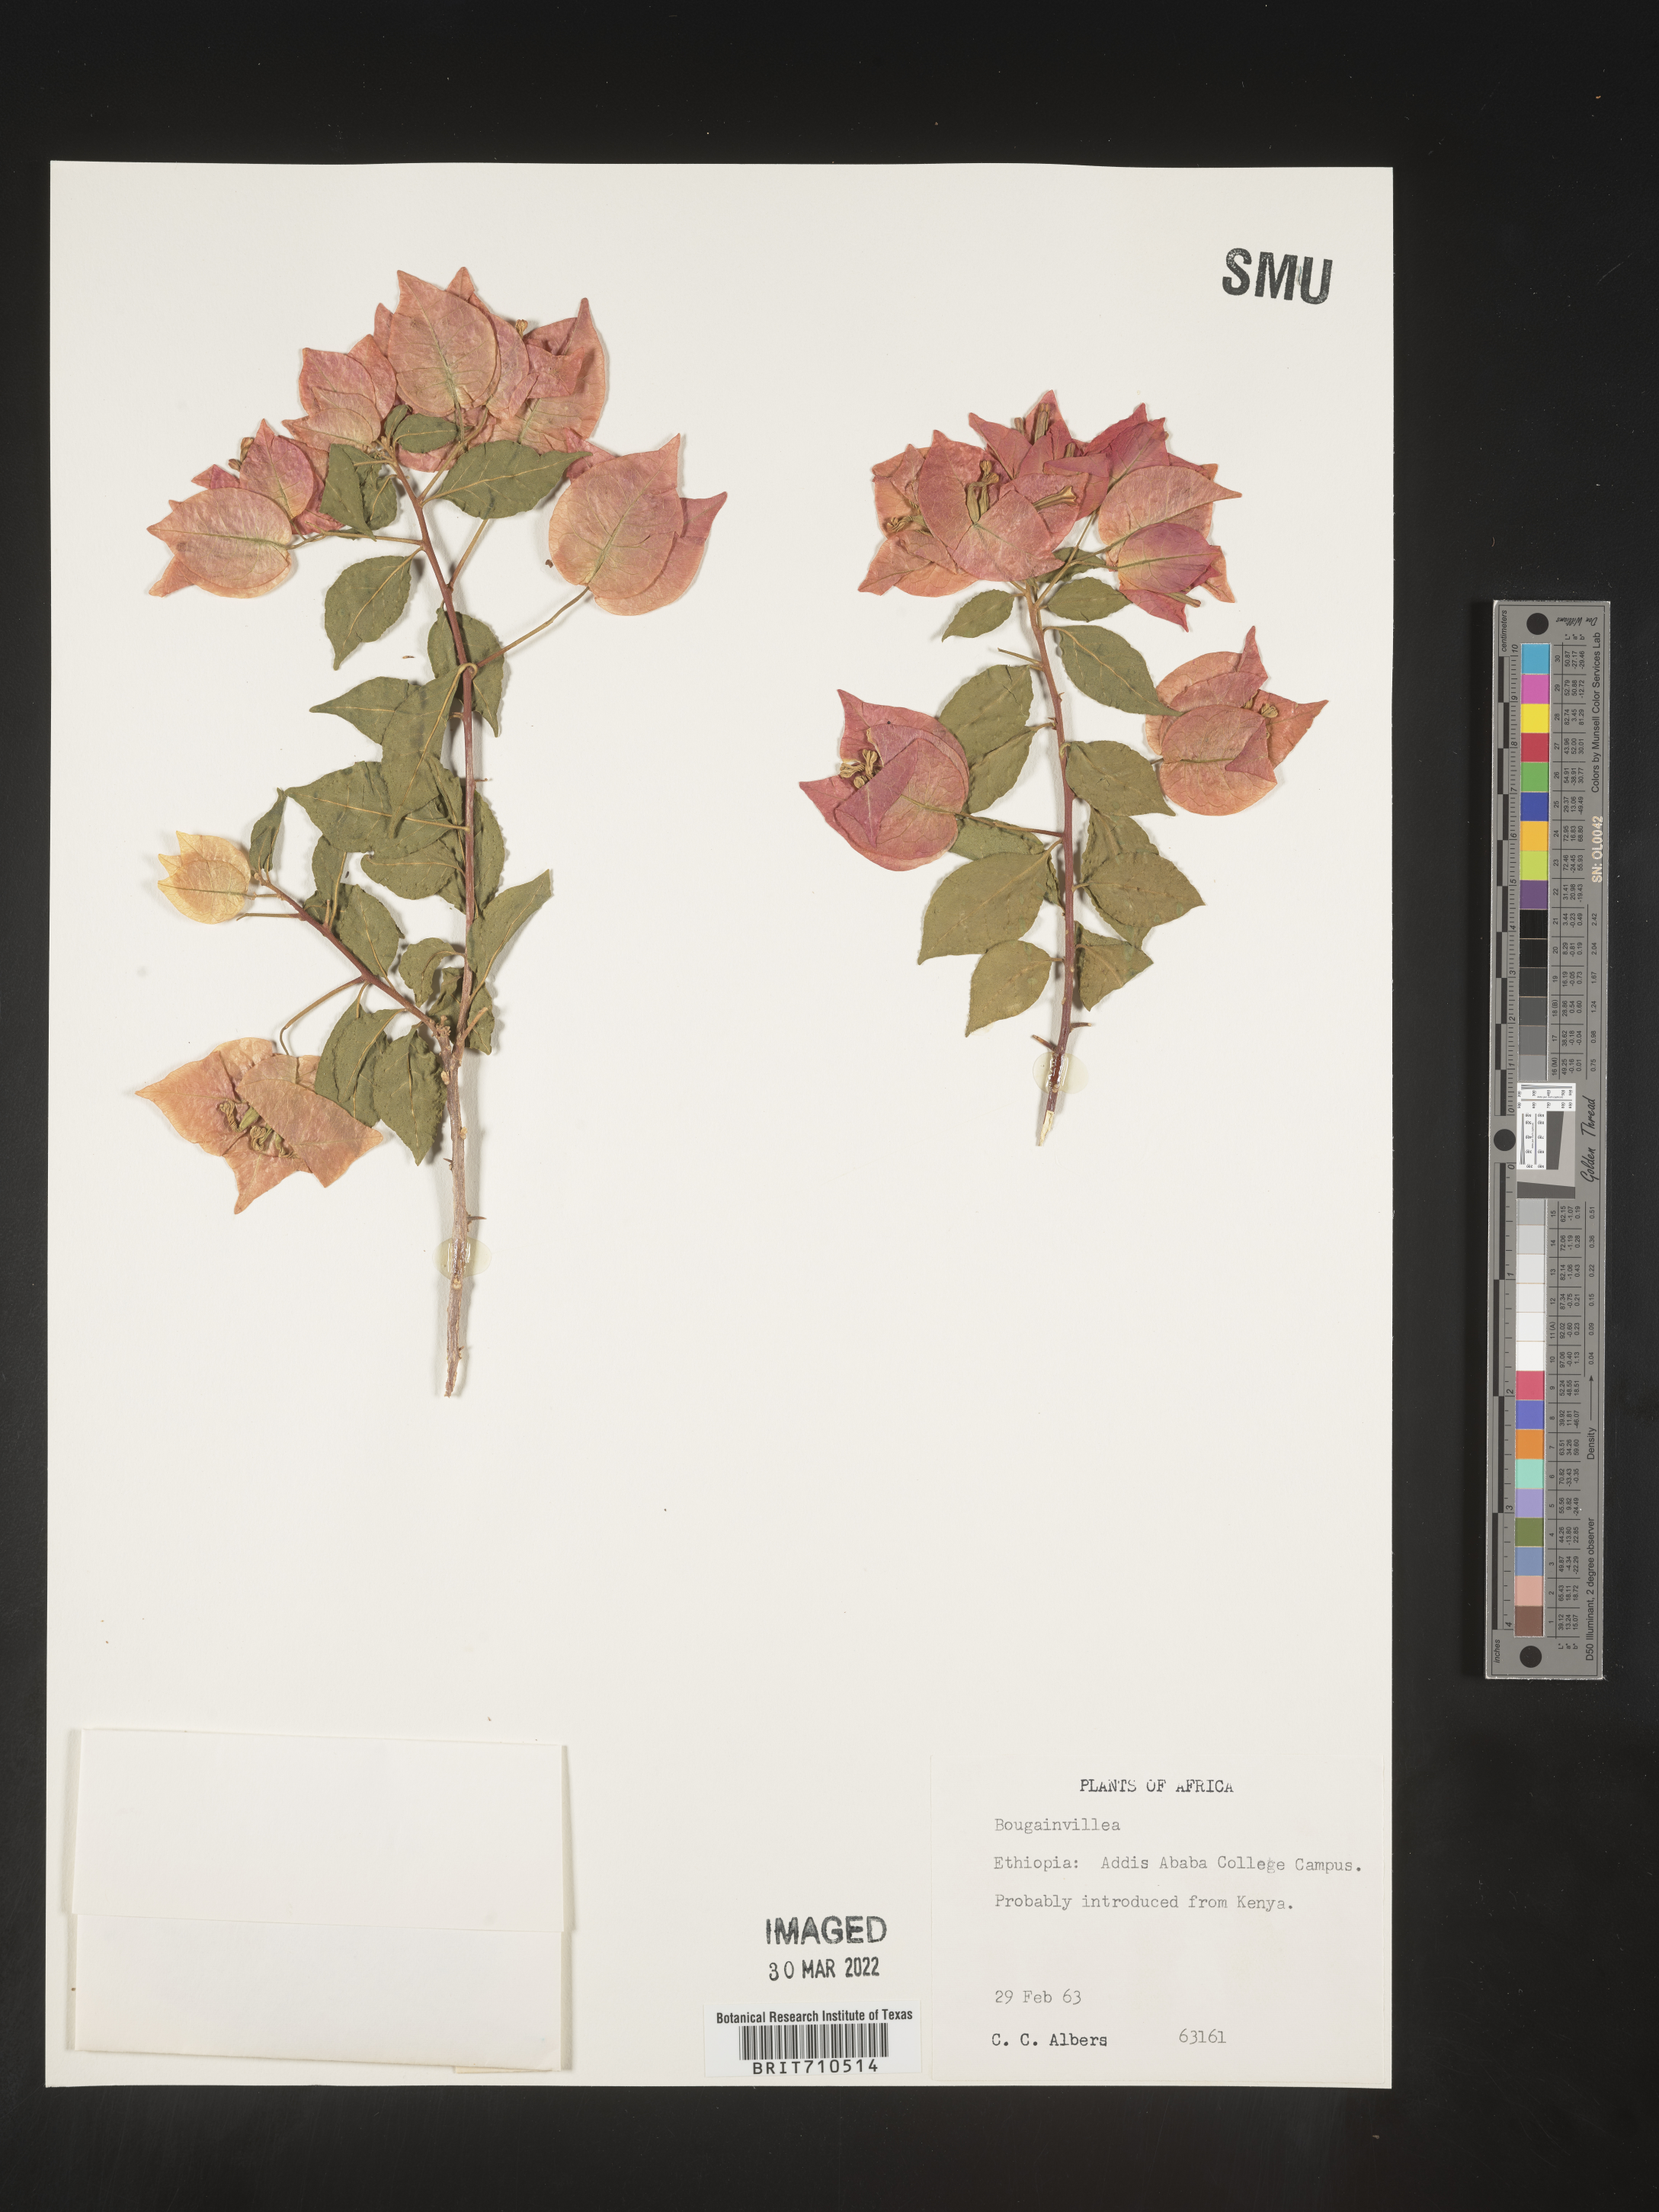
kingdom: Plantae
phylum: Tracheophyta
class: Magnoliopsida
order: Caryophyllales
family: Nyctaginaceae
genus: Bougainvillea
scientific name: Bougainvillea
